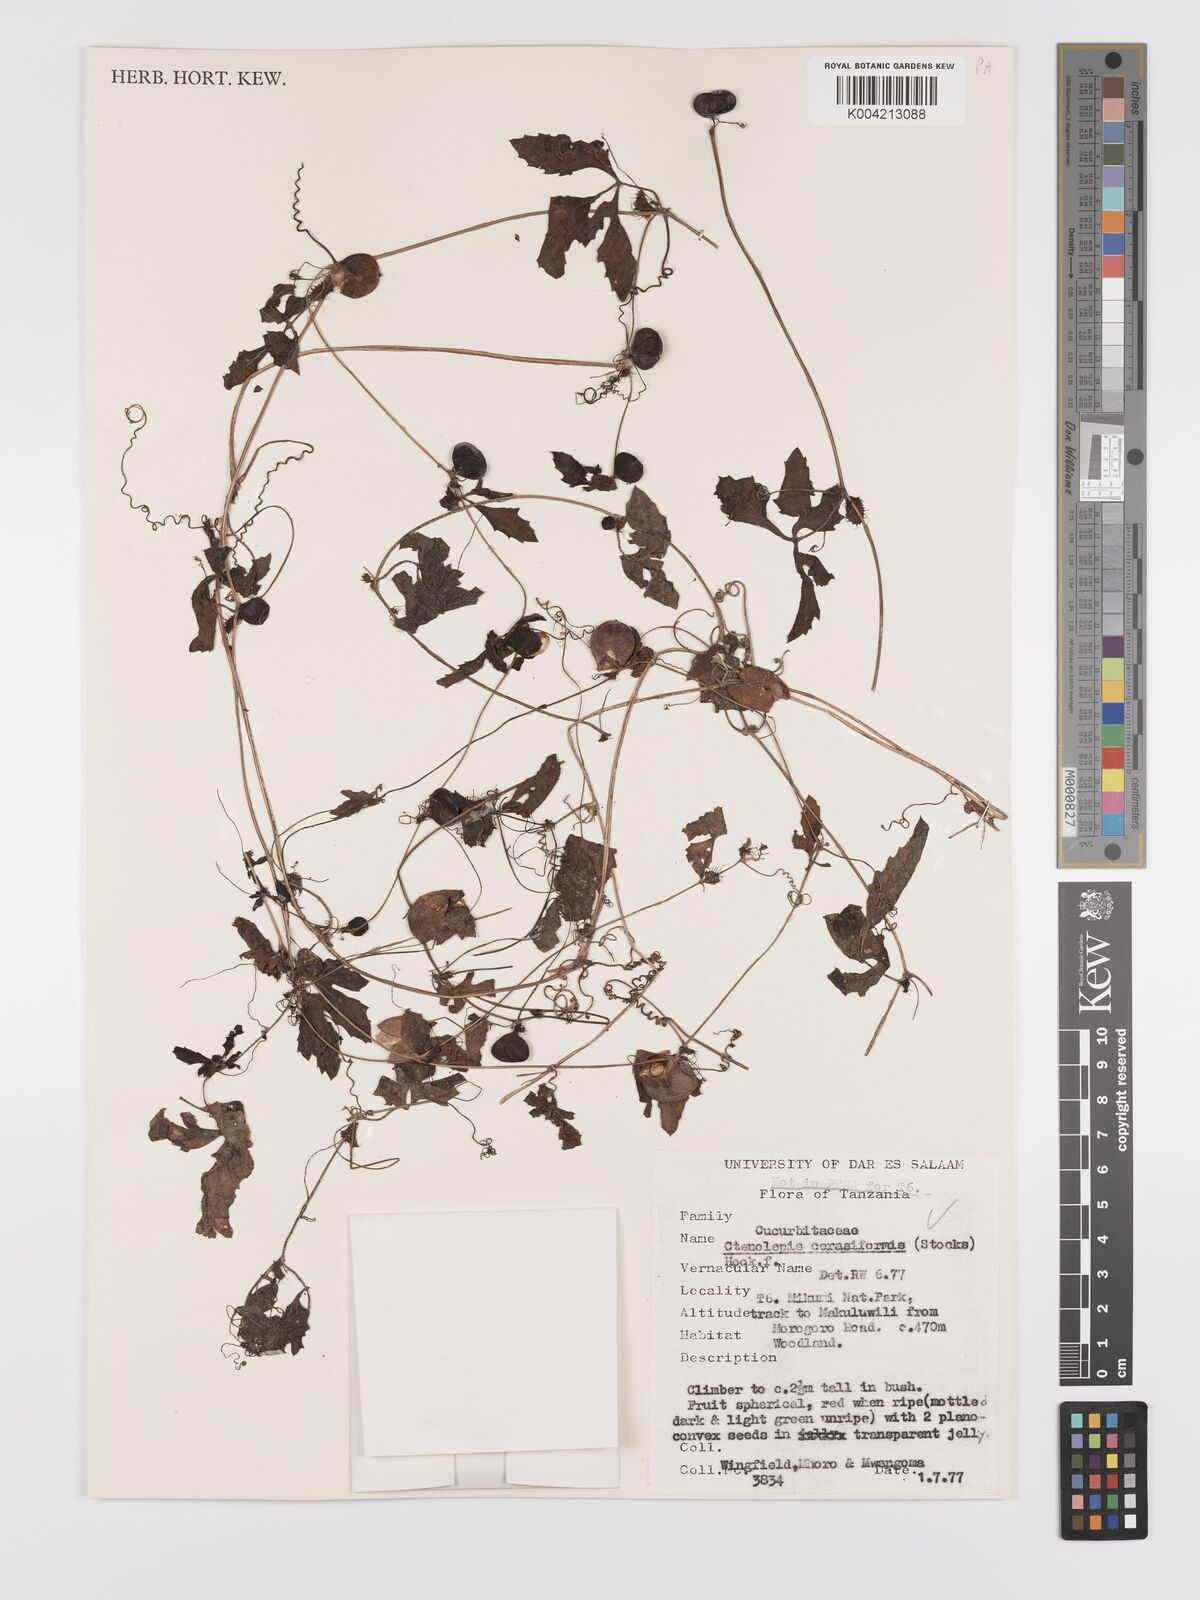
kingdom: Plantae
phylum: Tracheophyta
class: Magnoliopsida
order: Cucurbitales
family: Cucurbitaceae
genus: Blastania
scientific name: Blastania cerasiformis
